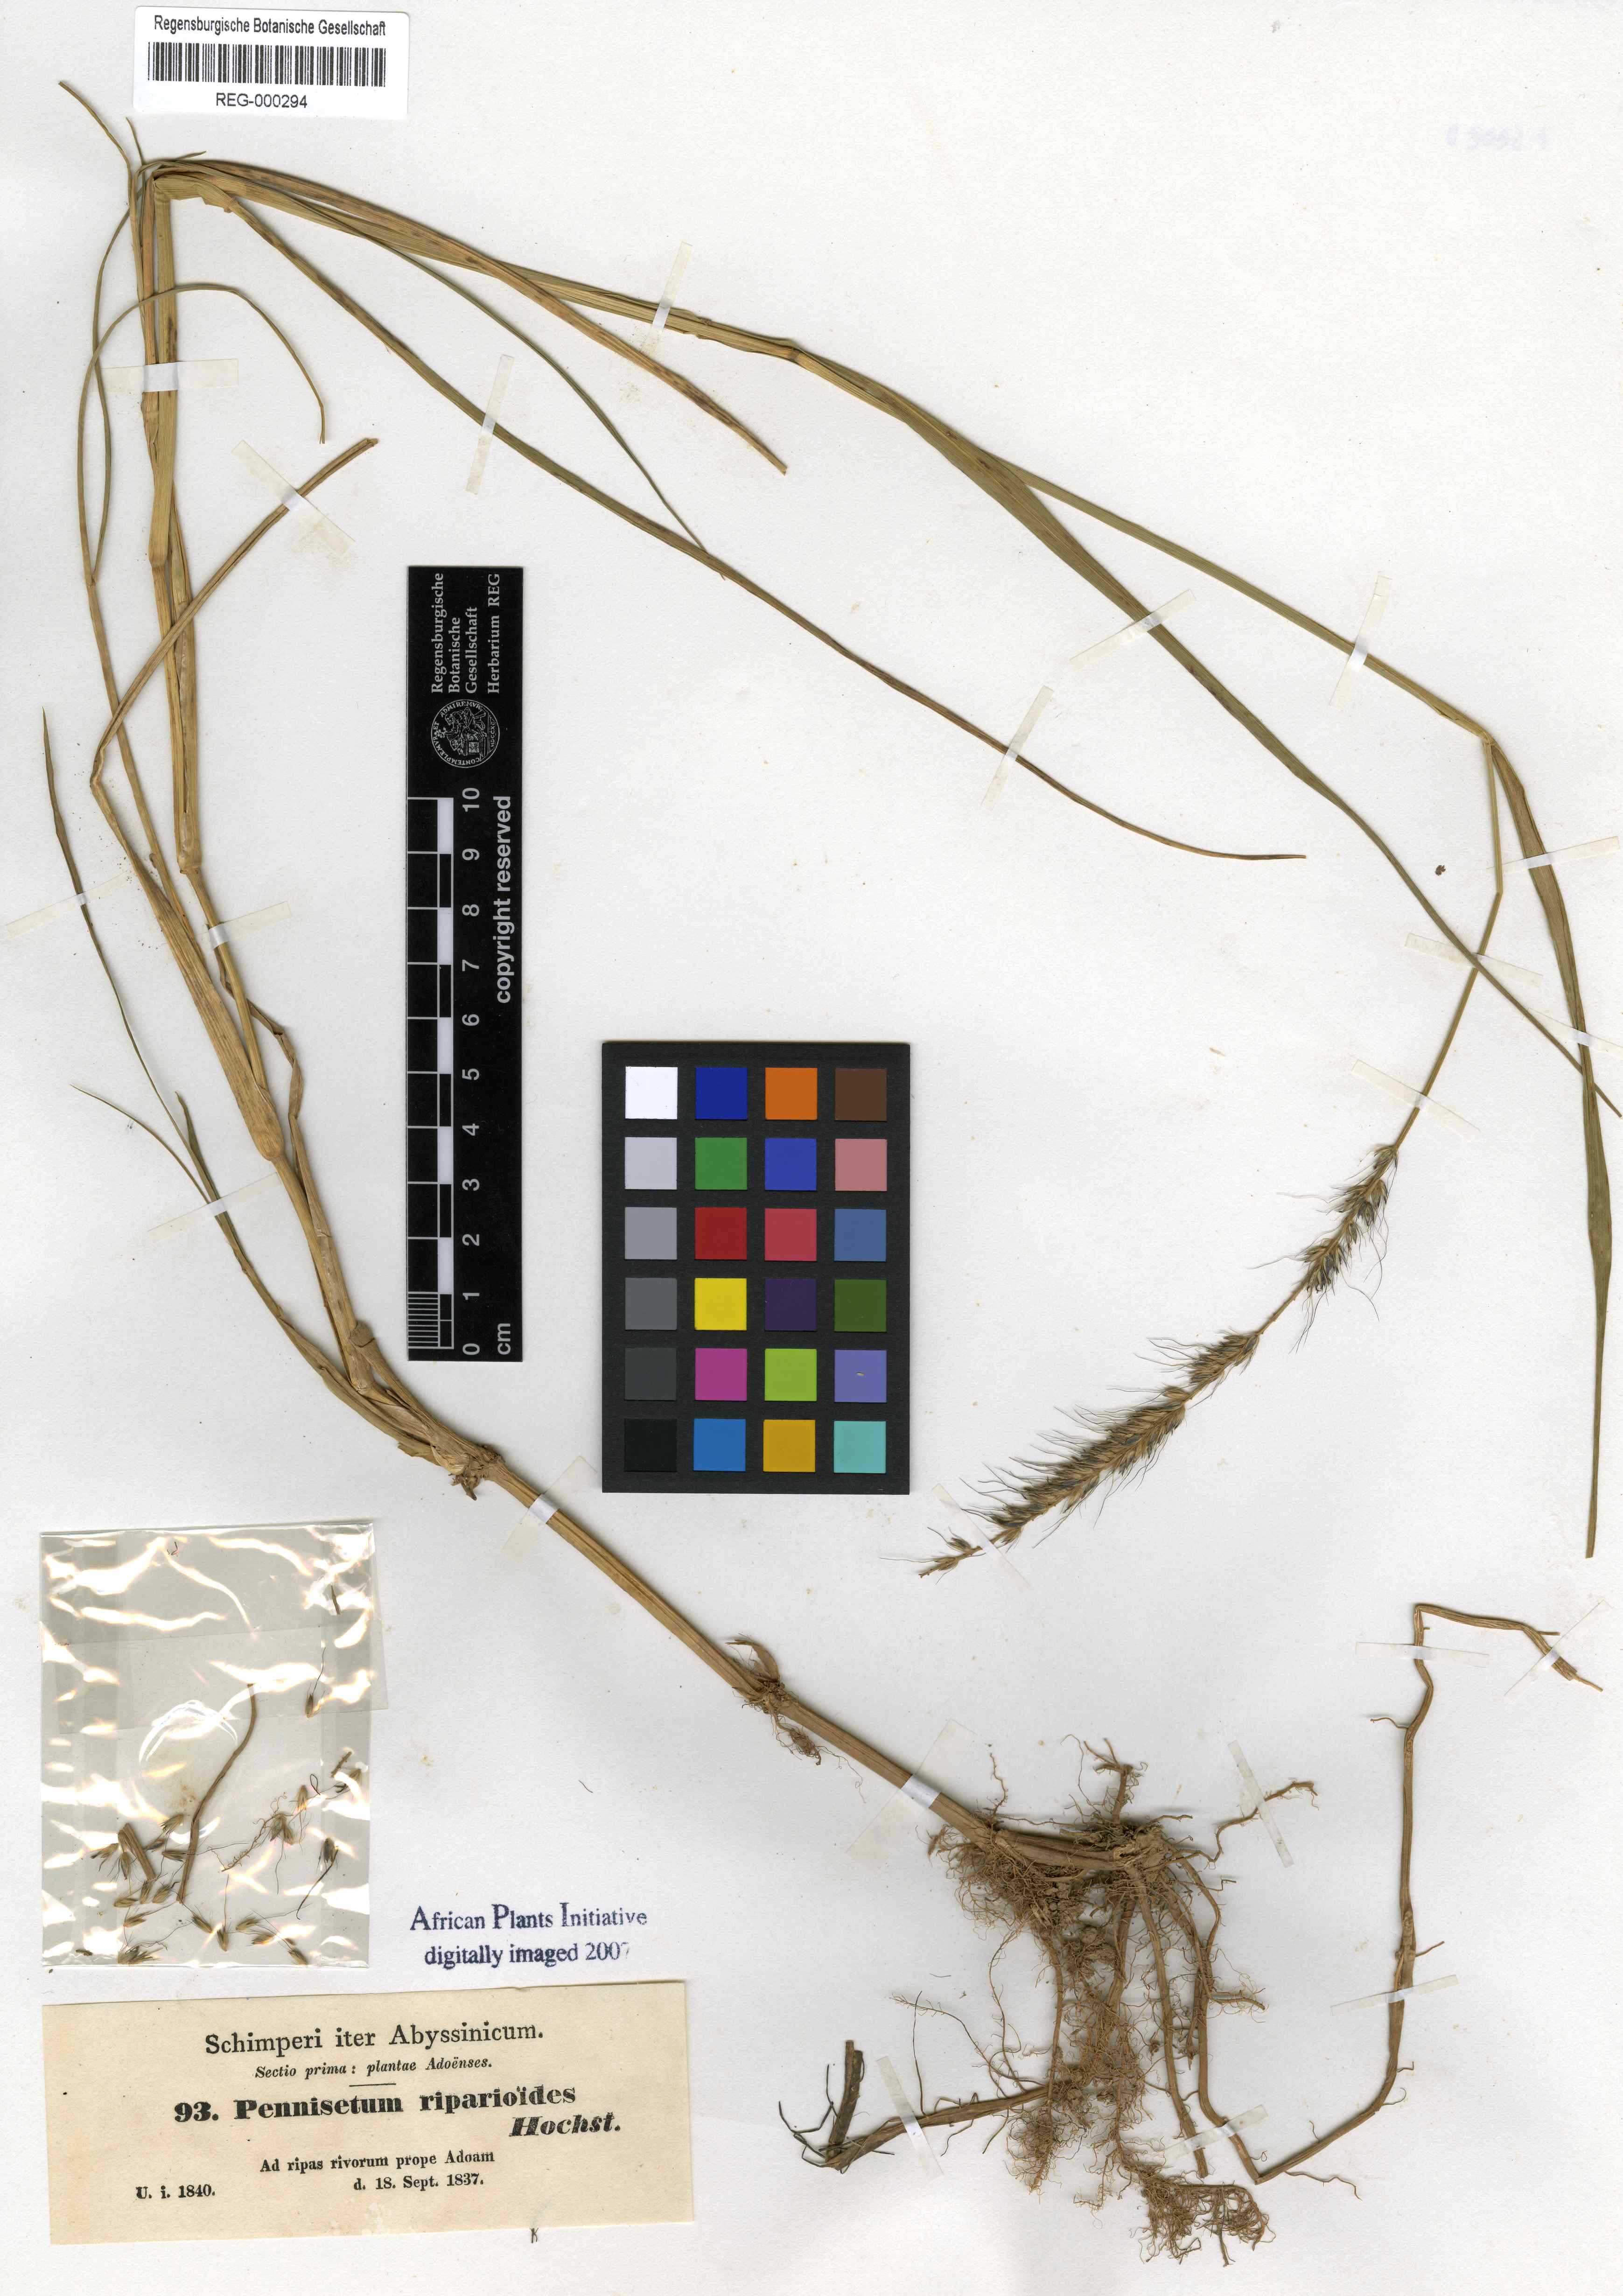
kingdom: Plantae
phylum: Tracheophyta
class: Liliopsida
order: Poales
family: Poaceae
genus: Cenchrus
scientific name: Cenchrus caudatus
